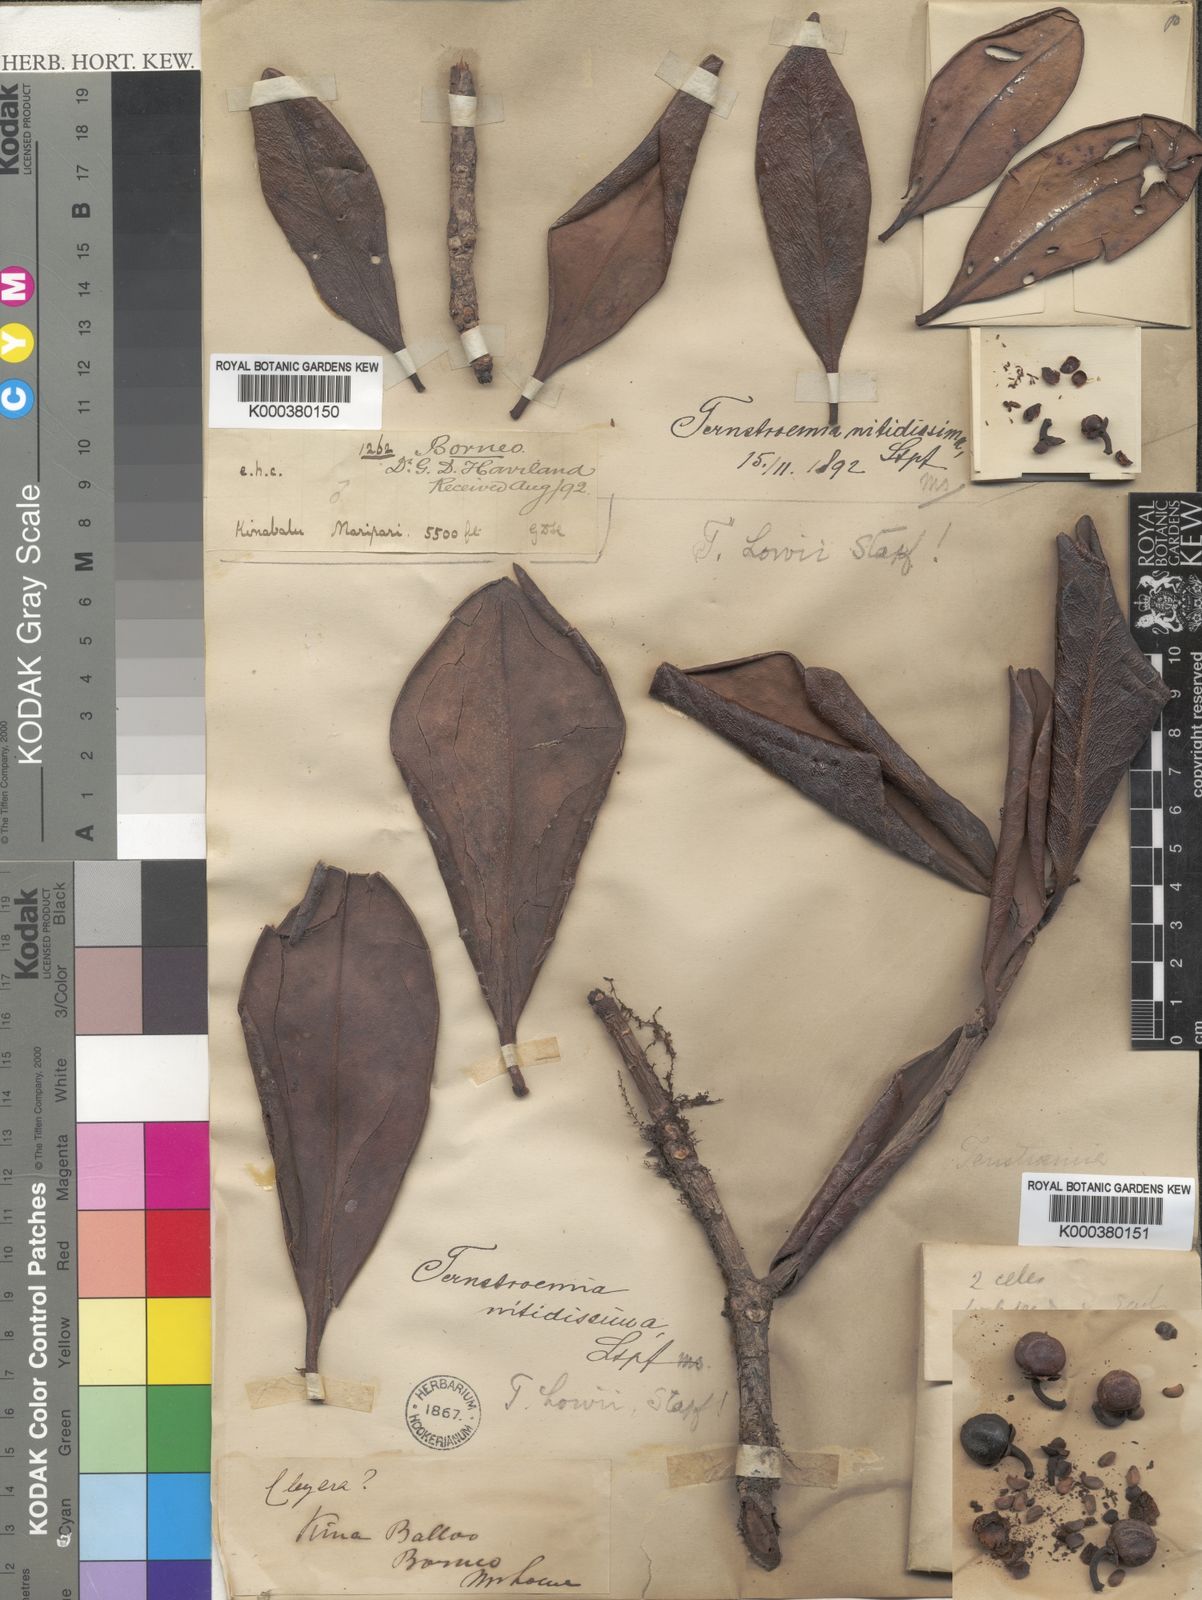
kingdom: Plantae
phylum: Tracheophyta
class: Magnoliopsida
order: Ericales
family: Pentaphylacaceae
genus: Ternstroemia
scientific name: Ternstroemia lowii
